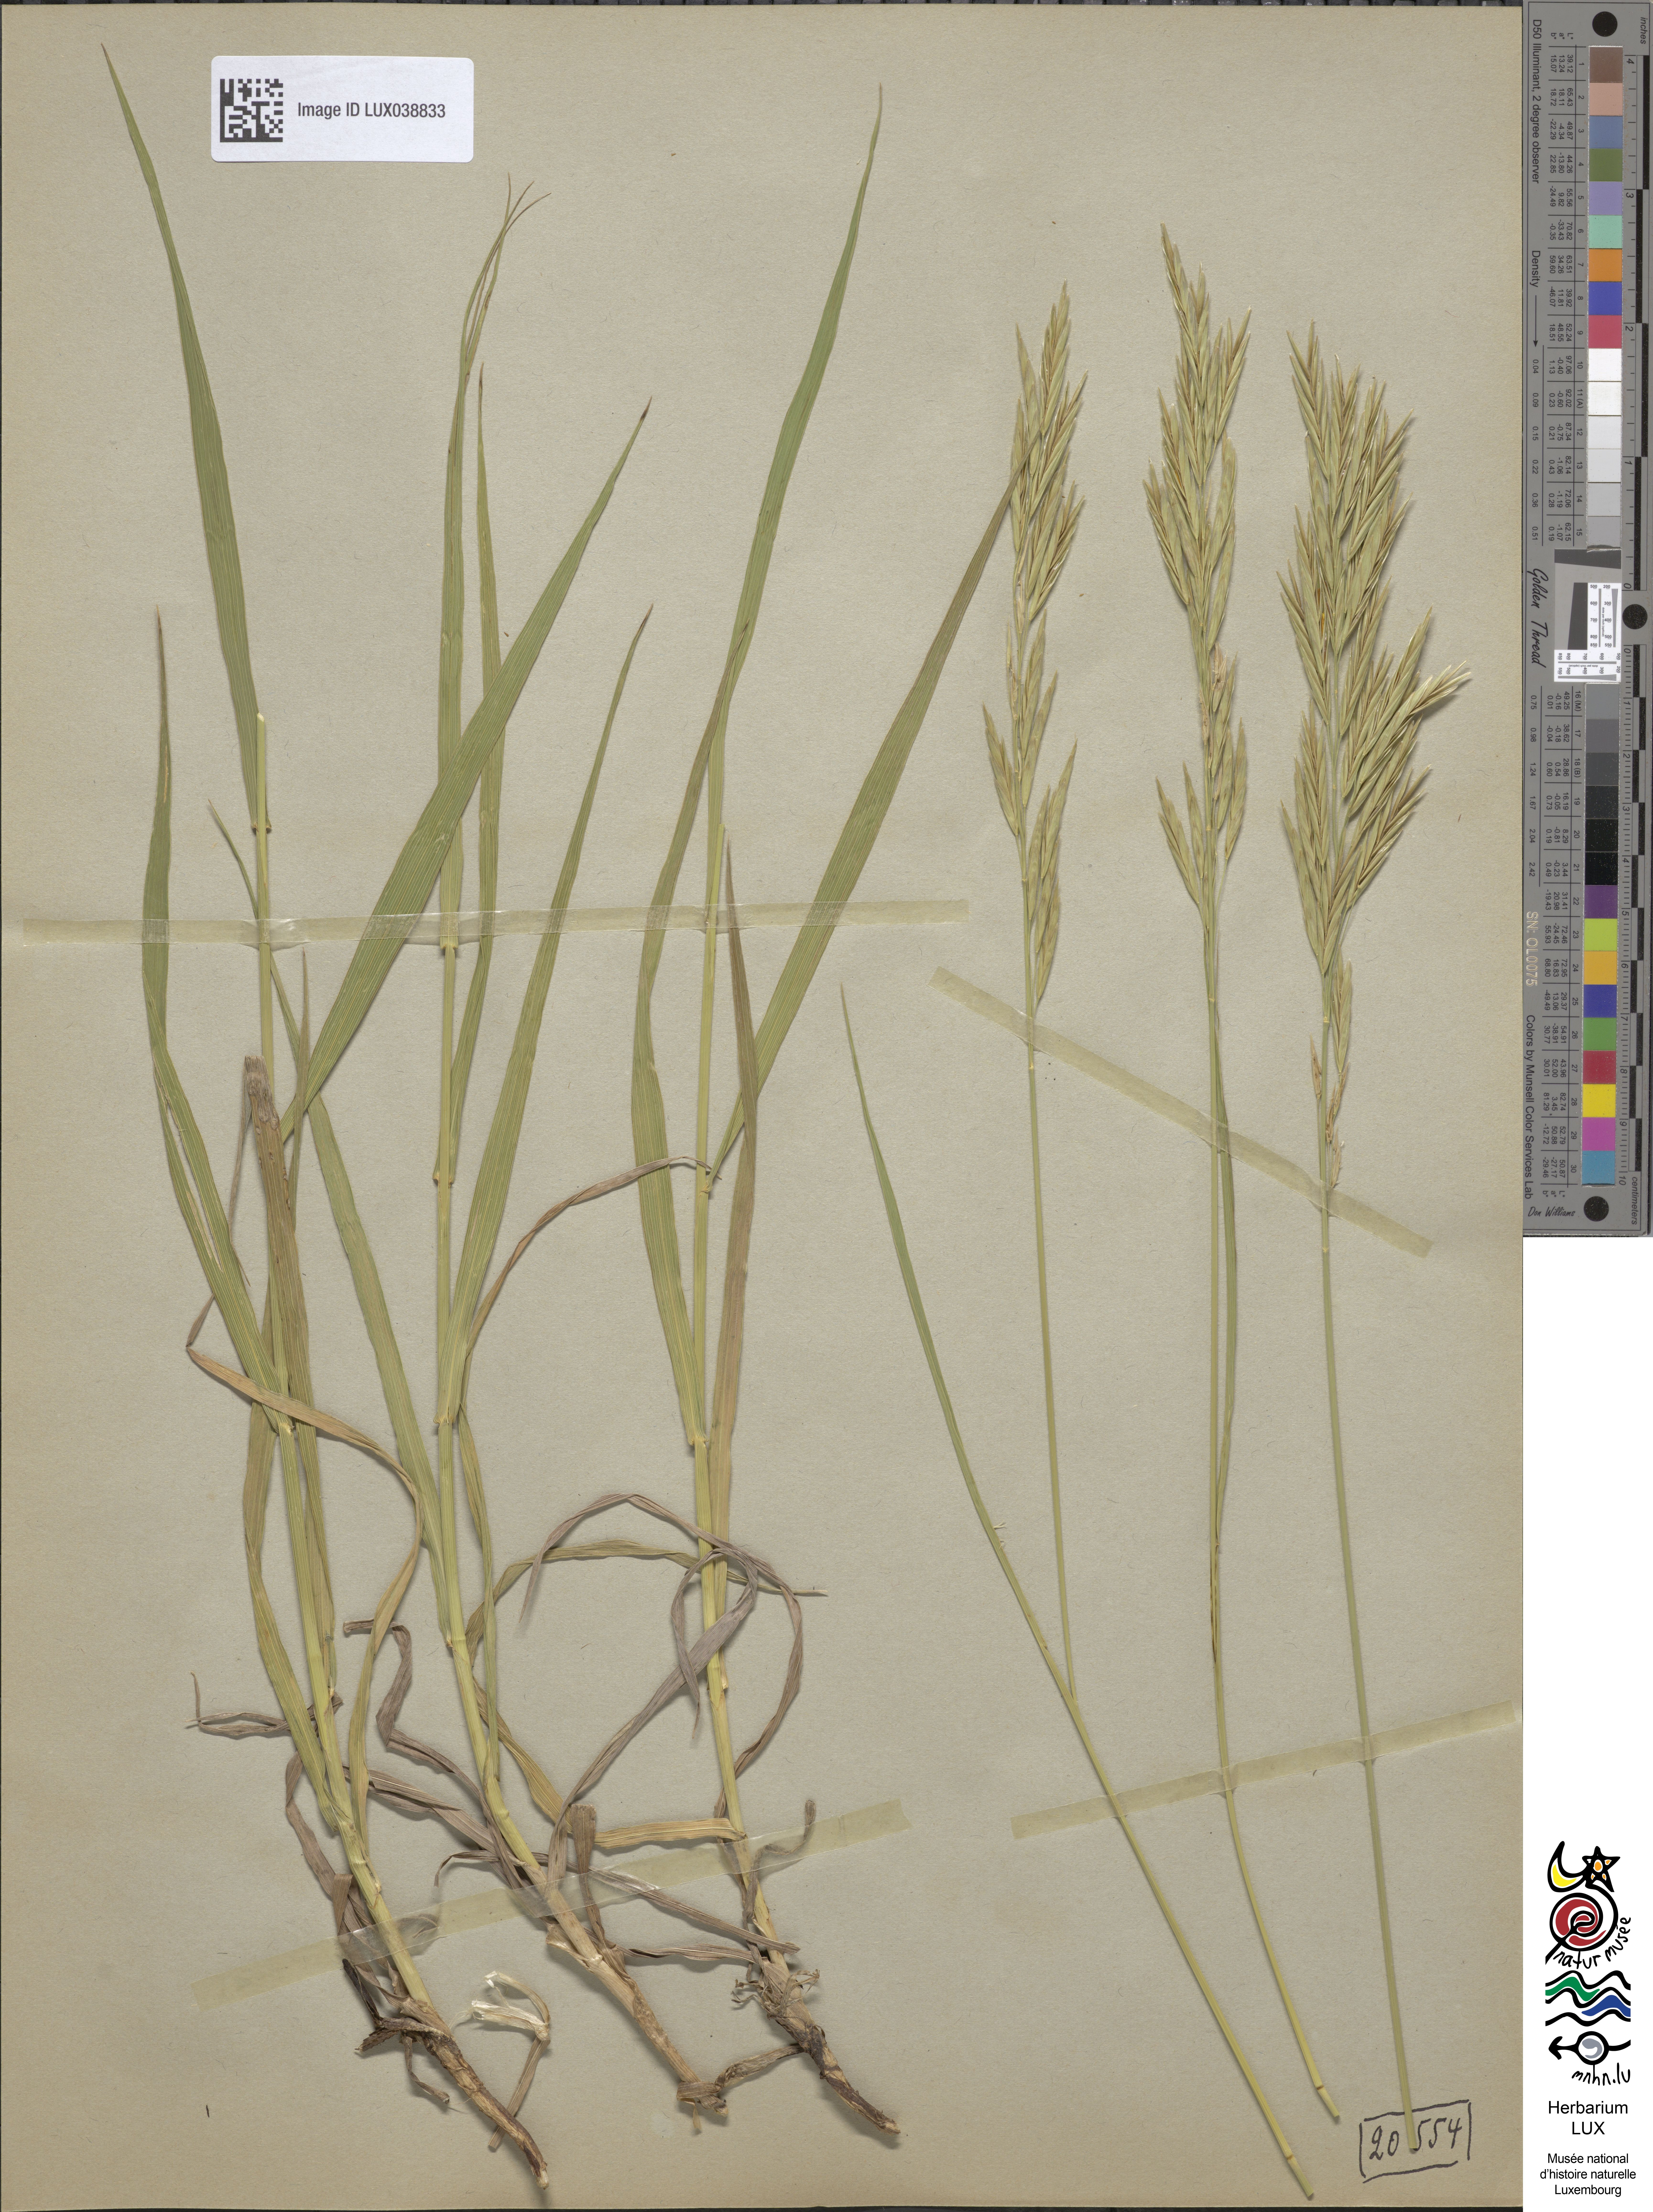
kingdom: Plantae
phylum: Tracheophyta
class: Liliopsida
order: Poales
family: Poaceae
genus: Bromus
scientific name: Bromus inermis
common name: Smooth brome
